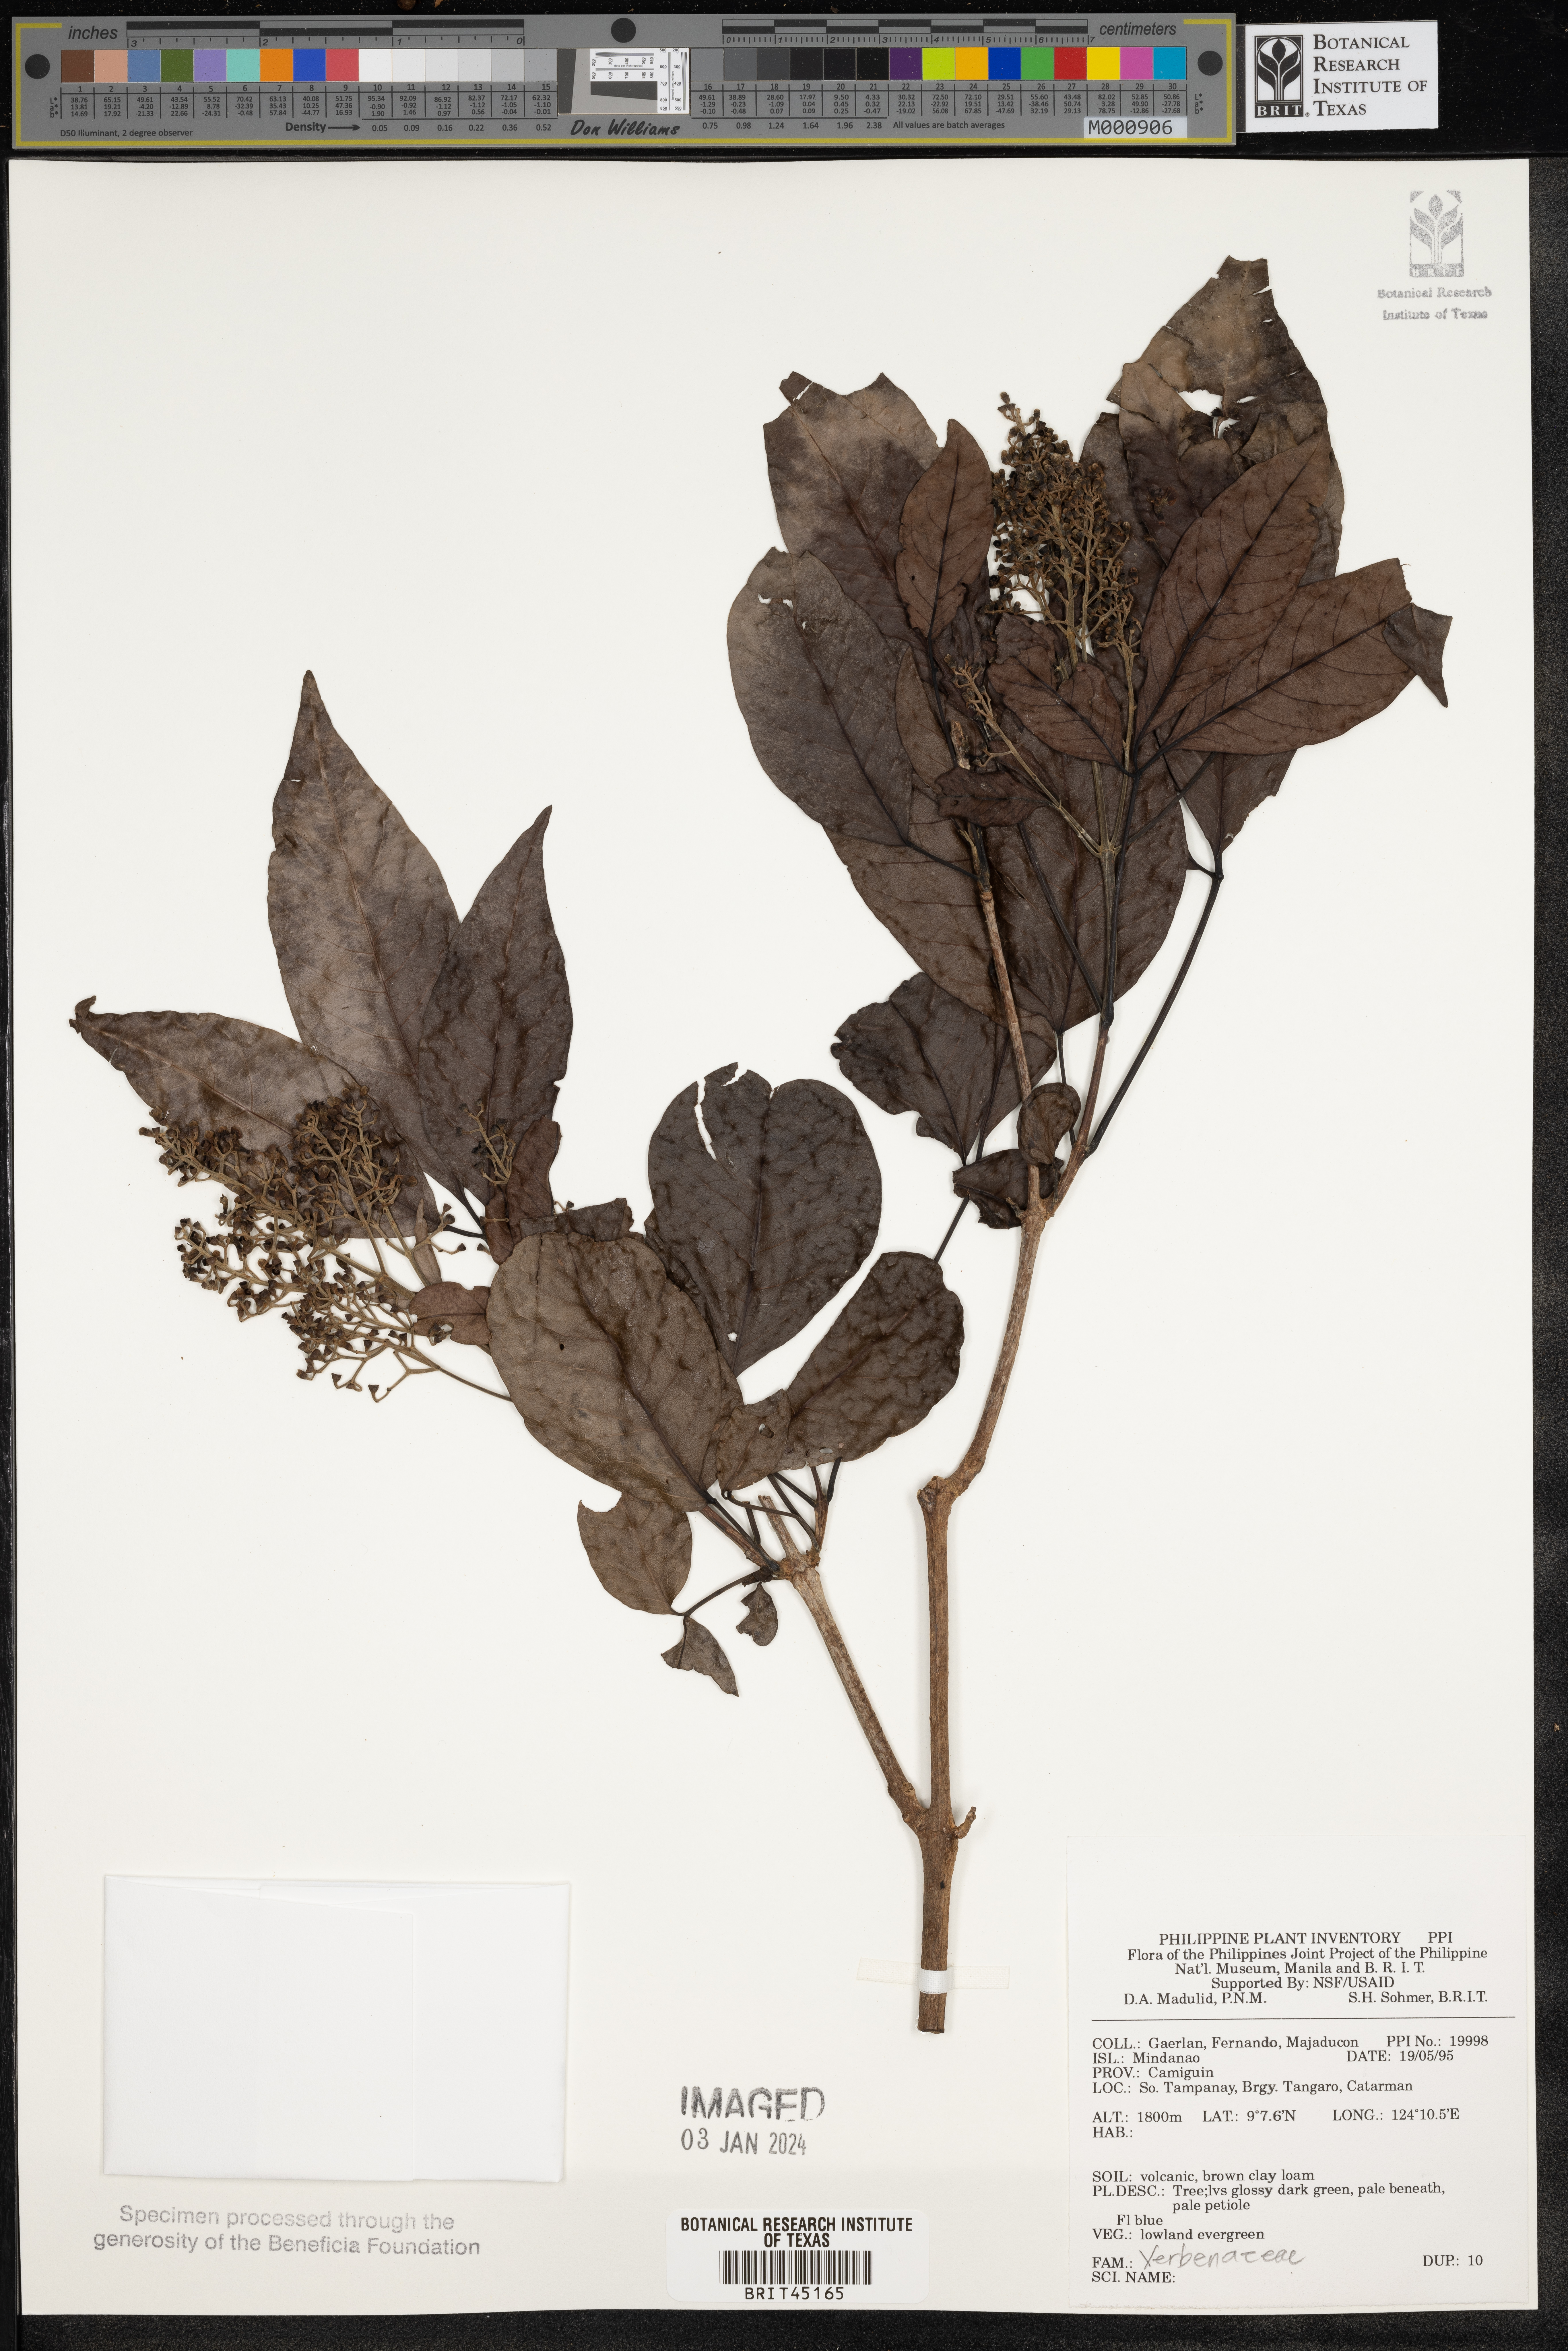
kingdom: Plantae
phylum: Tracheophyta
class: Magnoliopsida
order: Lamiales
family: Verbenaceae
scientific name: Verbenaceae
